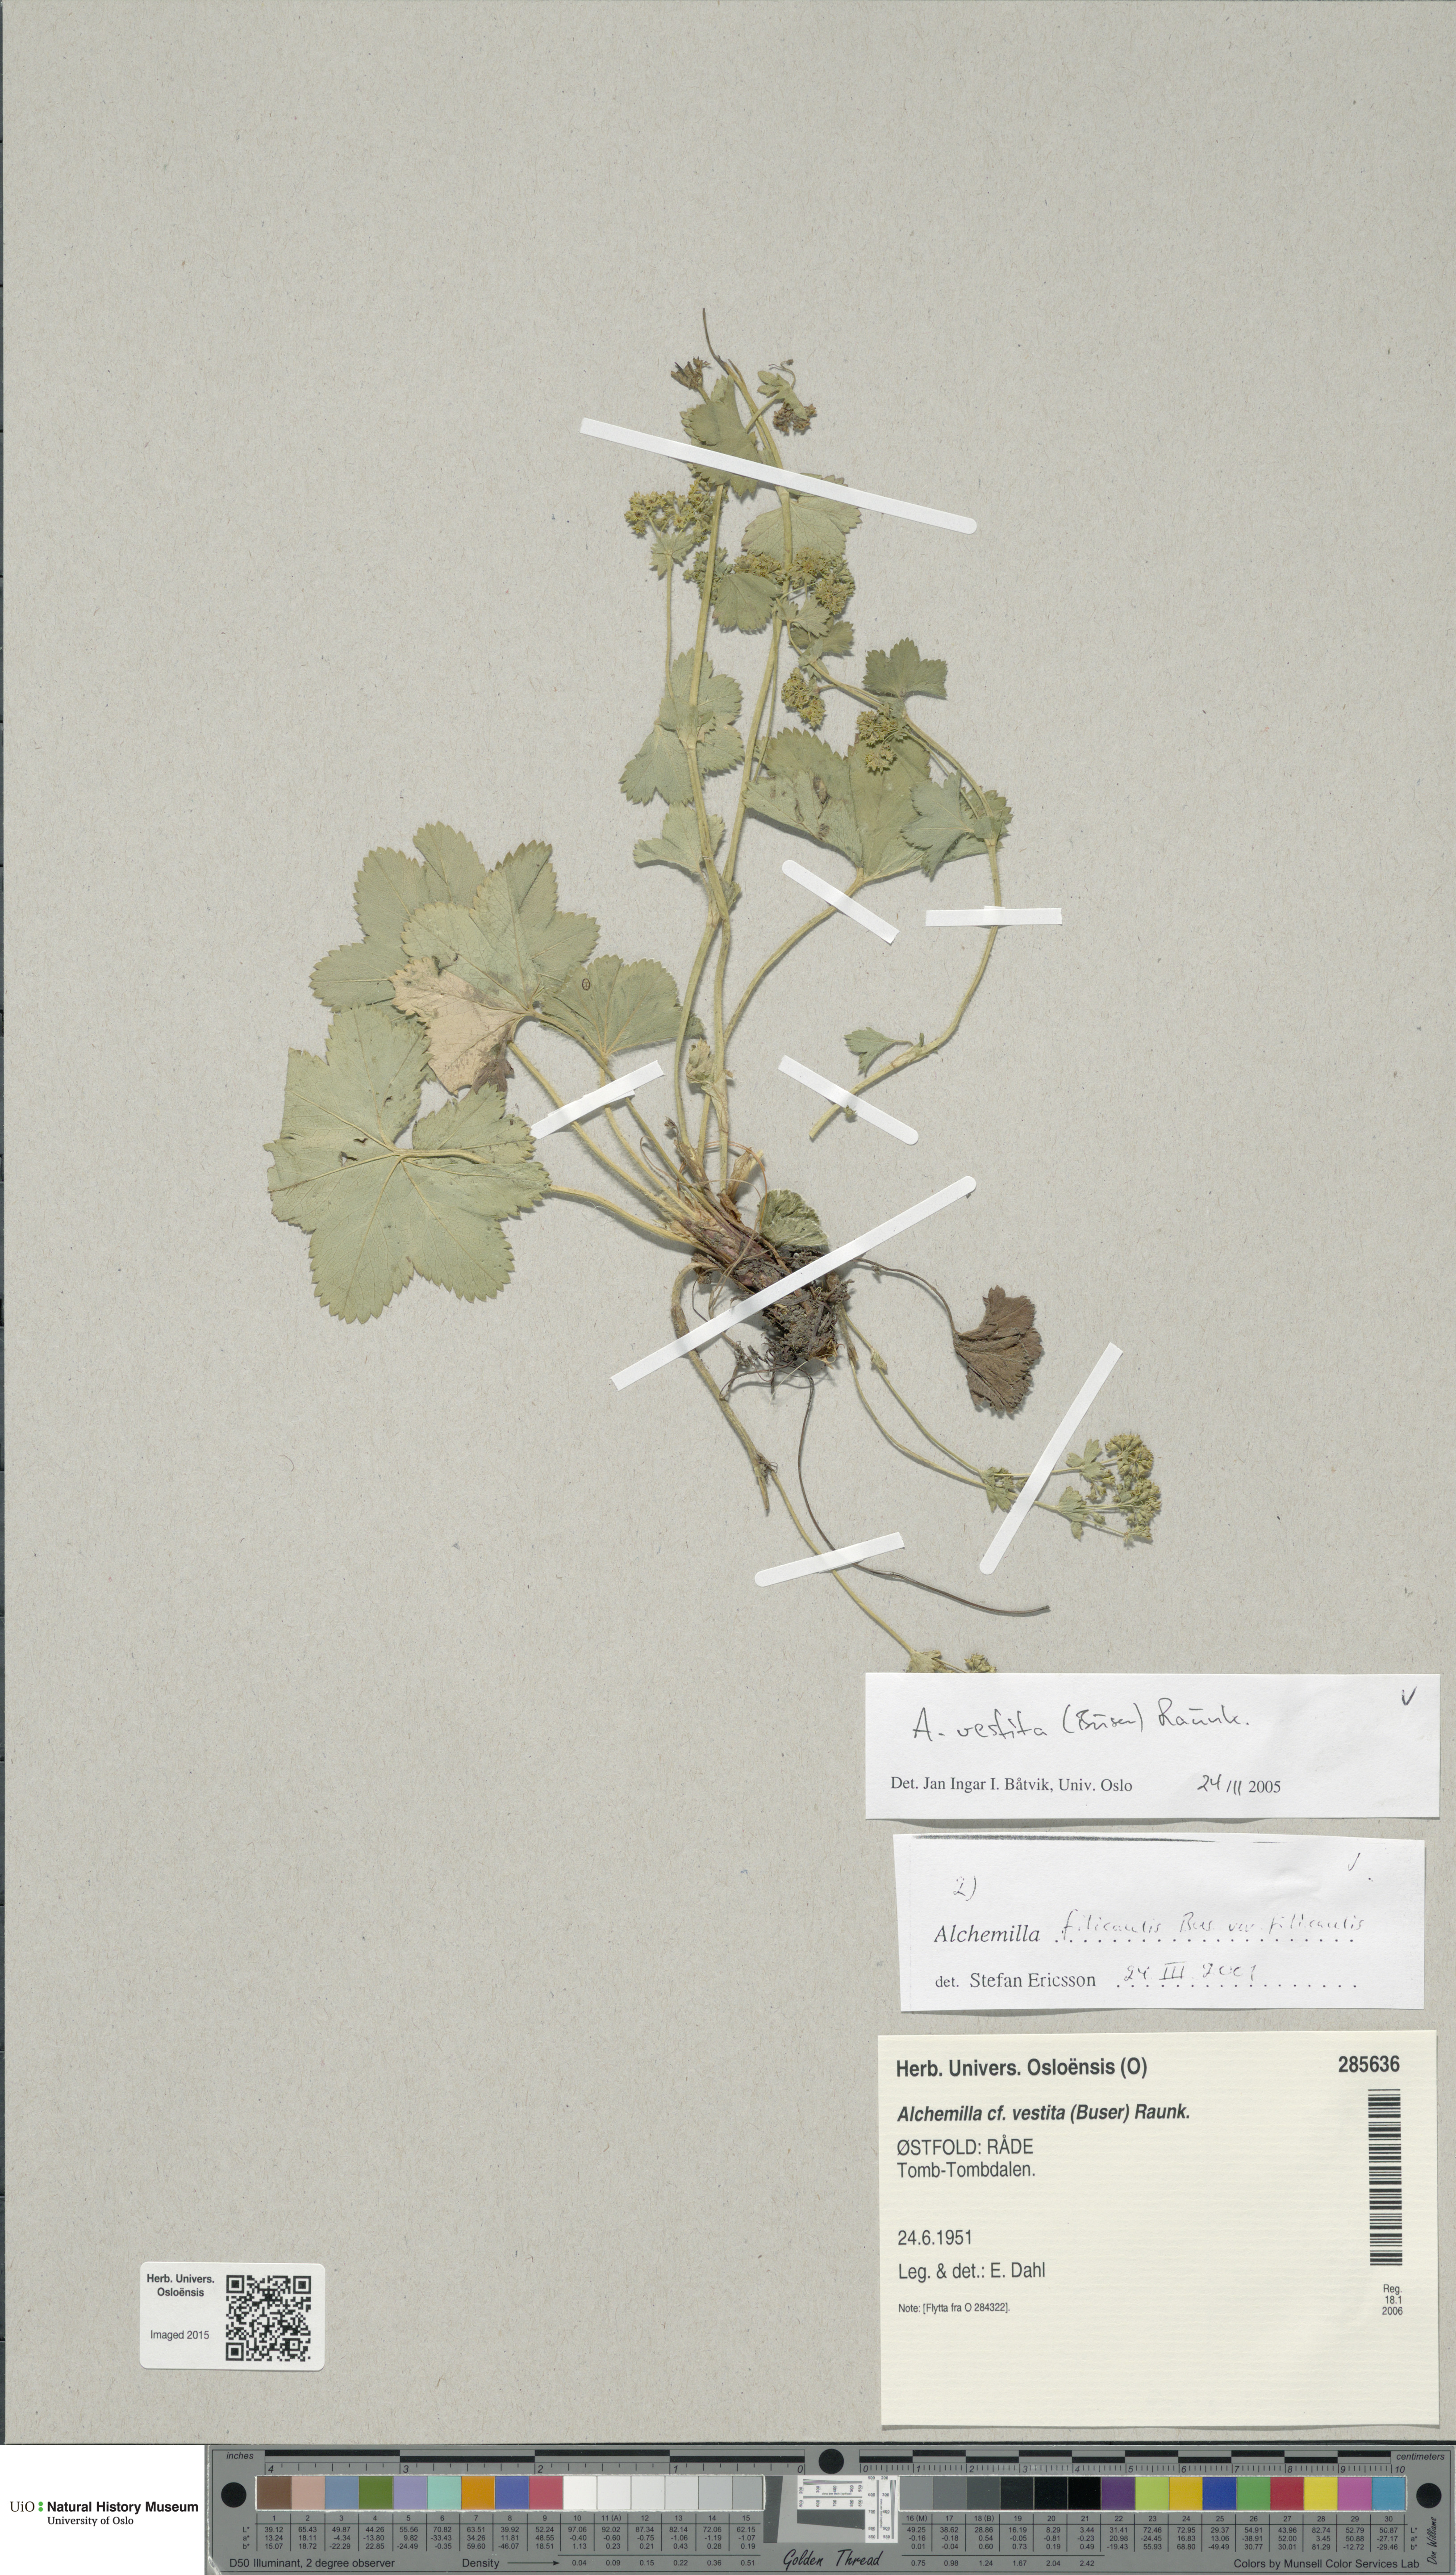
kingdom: Plantae
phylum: Tracheophyta
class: Magnoliopsida
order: Rosales
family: Rosaceae
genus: Alchemilla
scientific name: Alchemilla filicaulis
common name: Hairy lady's-mantle
